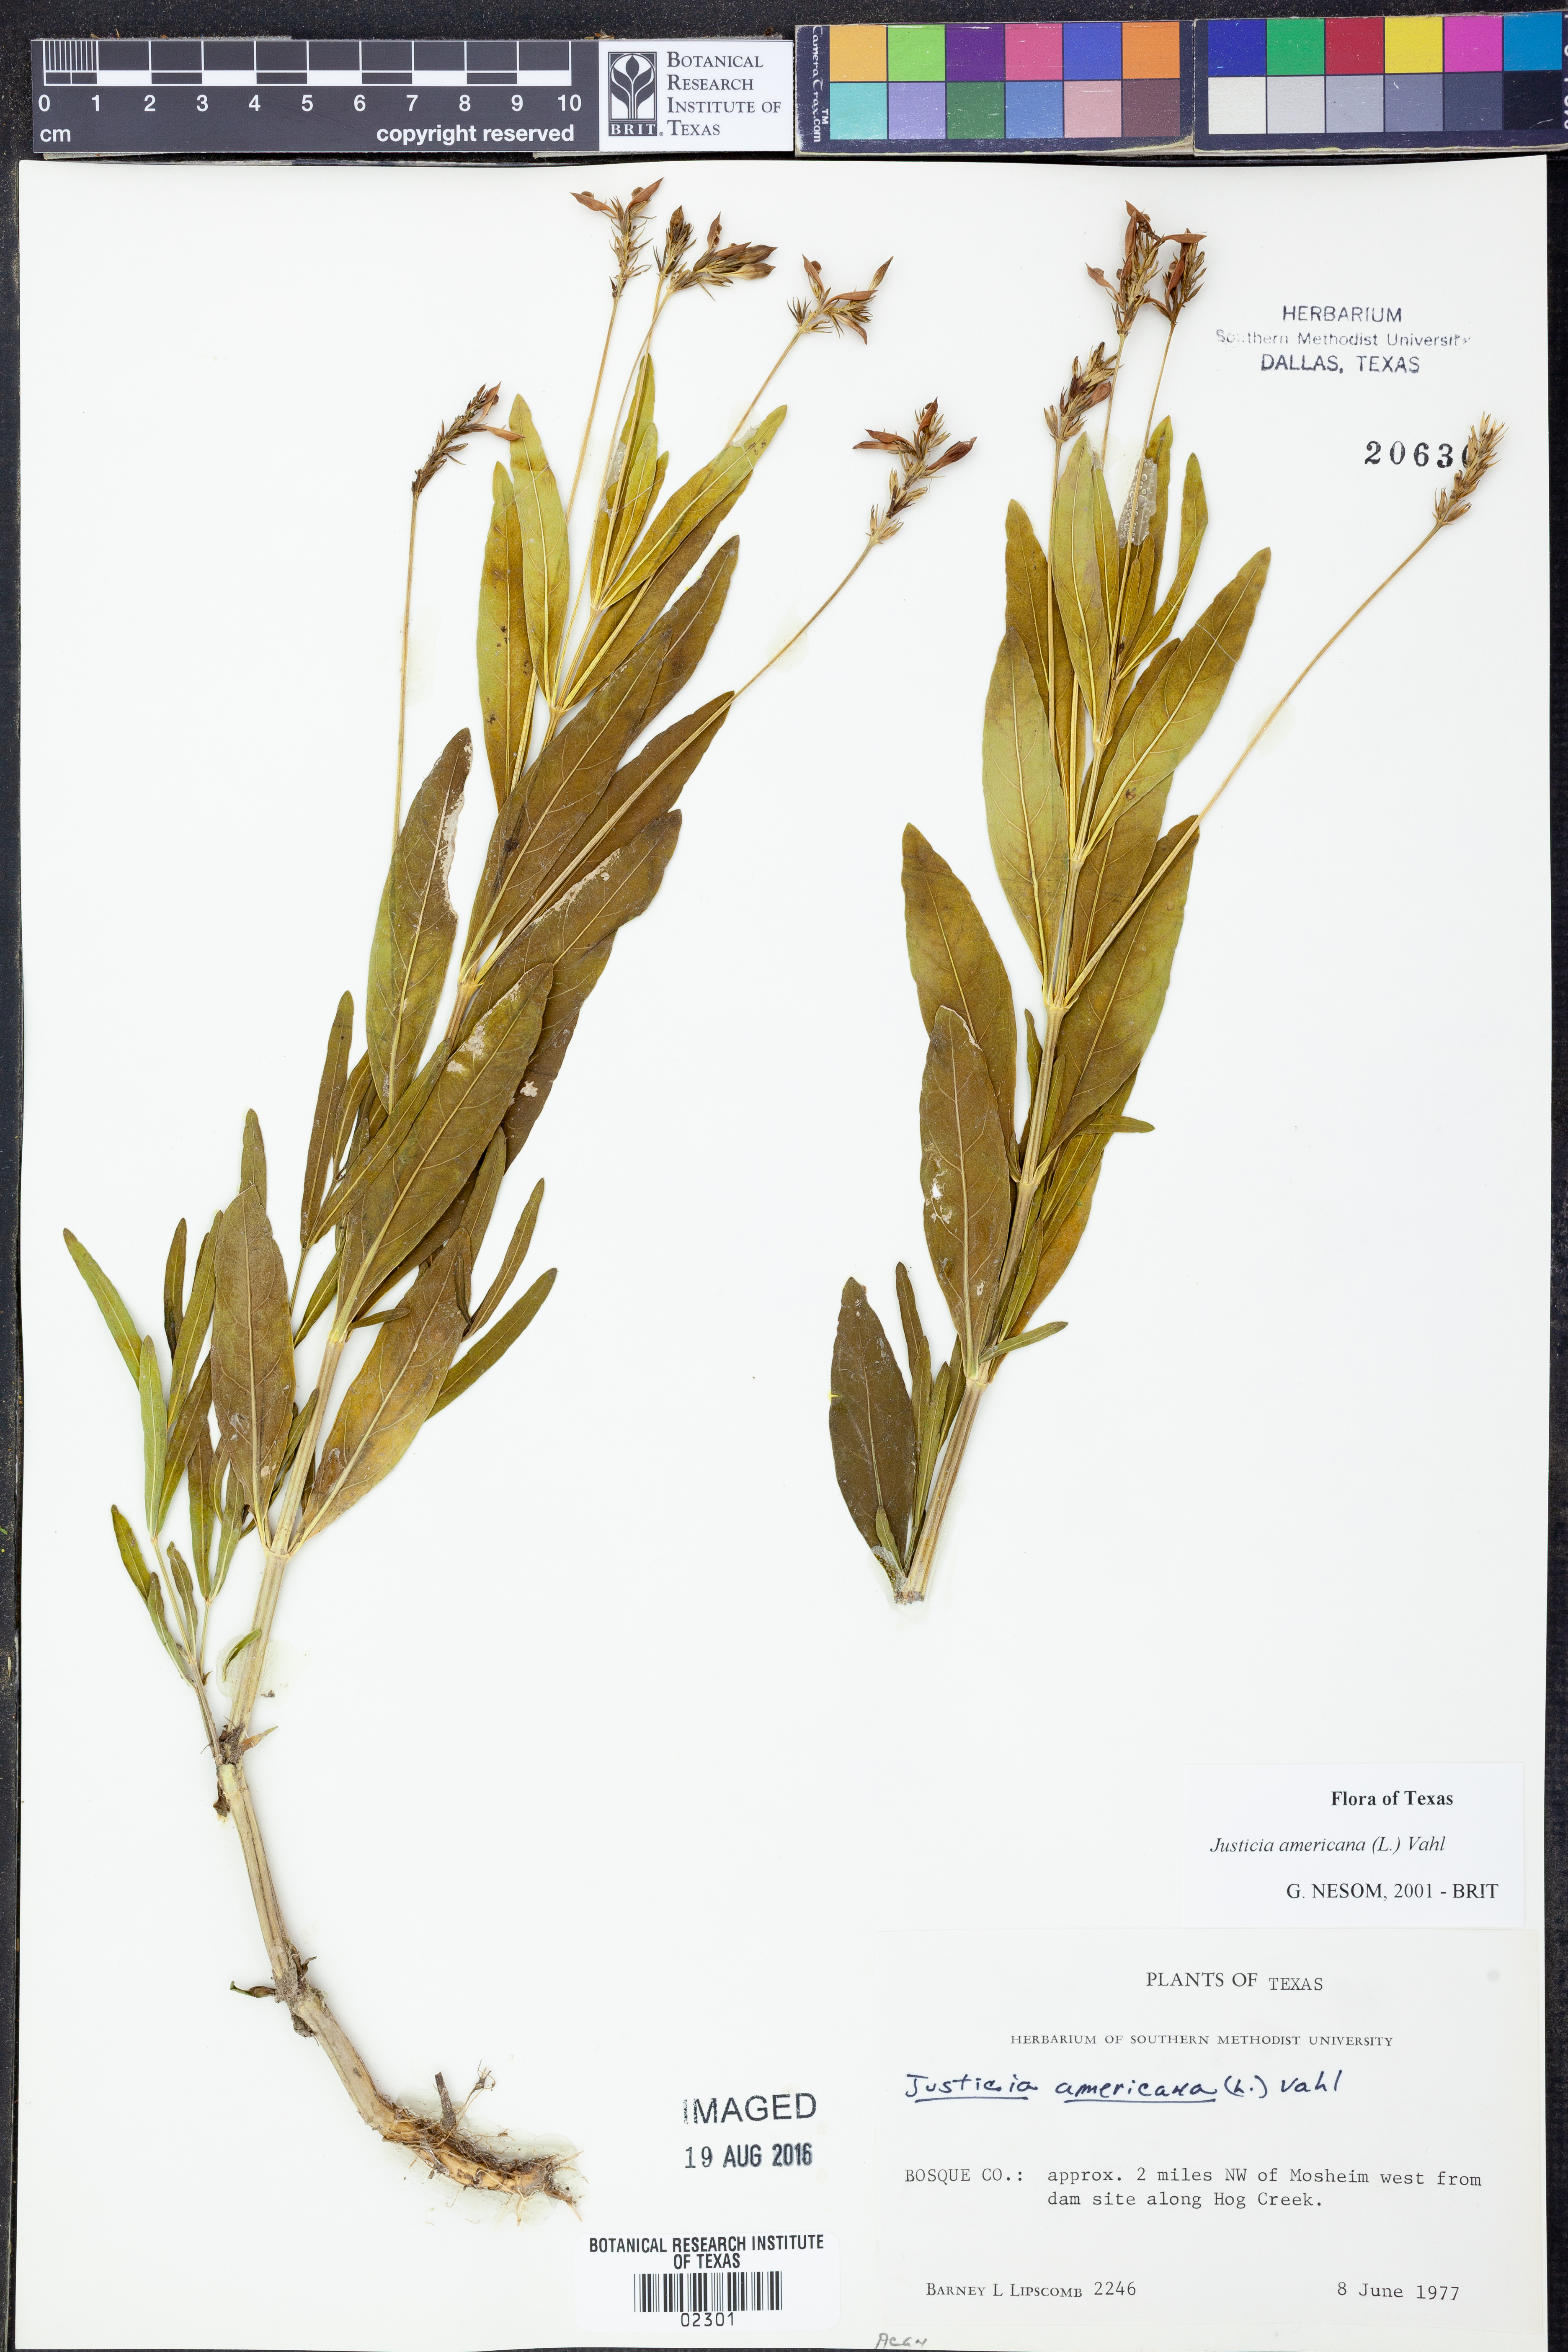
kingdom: Plantae
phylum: Tracheophyta
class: Magnoliopsida
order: Lamiales
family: Acanthaceae
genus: Dianthera
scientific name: Dianthera americana
